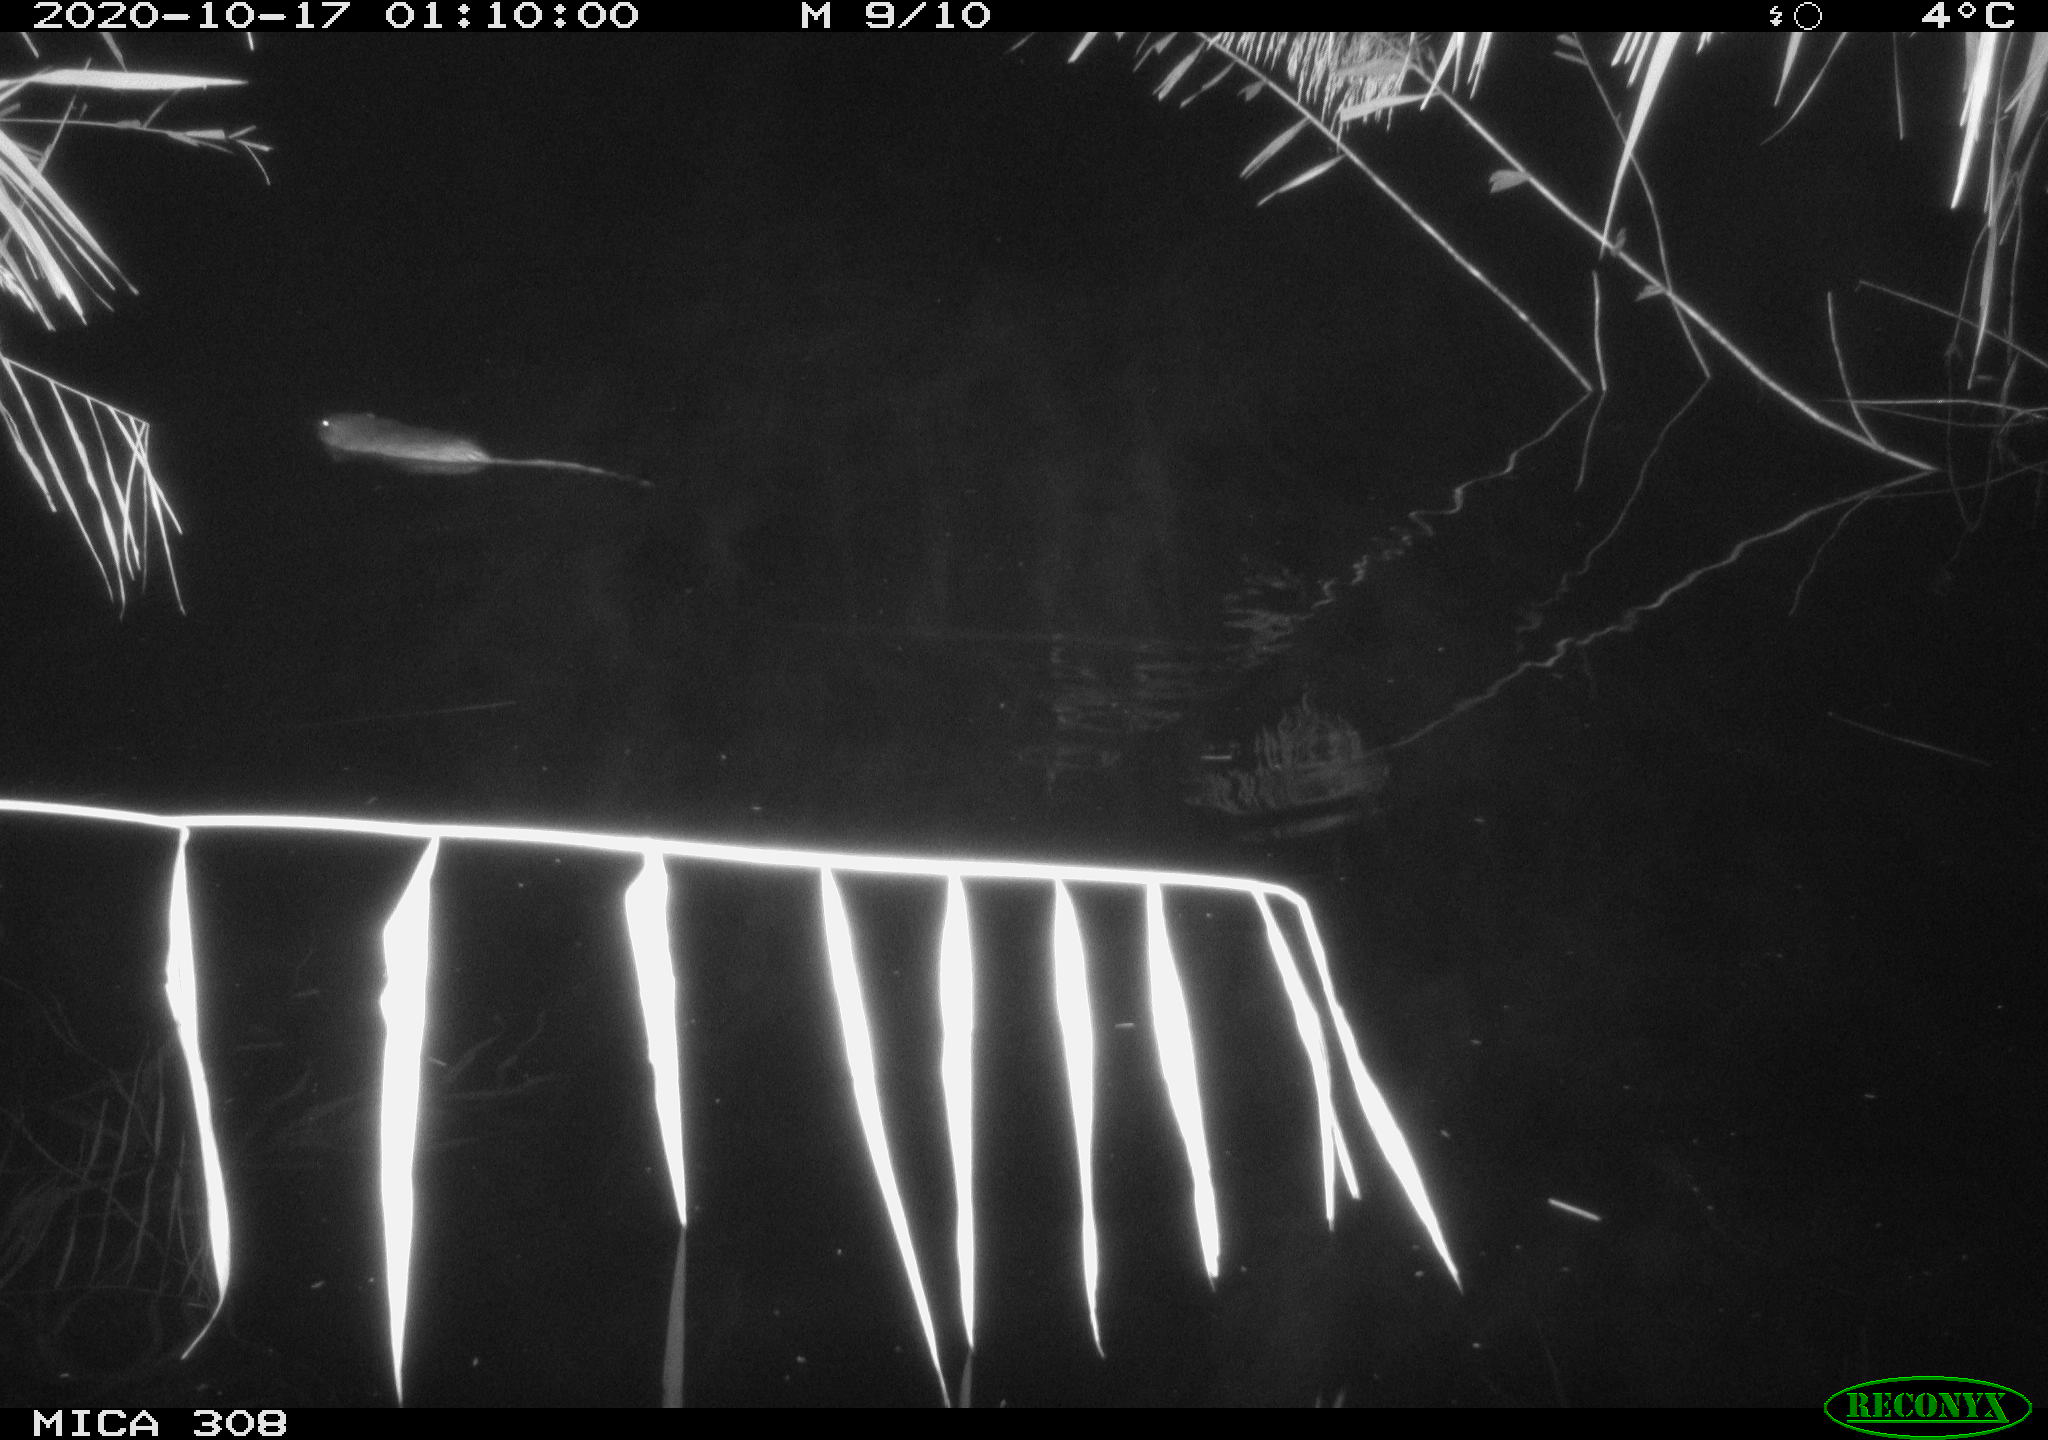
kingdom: Animalia
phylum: Chordata
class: Mammalia
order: Rodentia
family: Cricetidae
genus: Ondatra
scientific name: Ondatra zibethicus
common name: Muskrat
